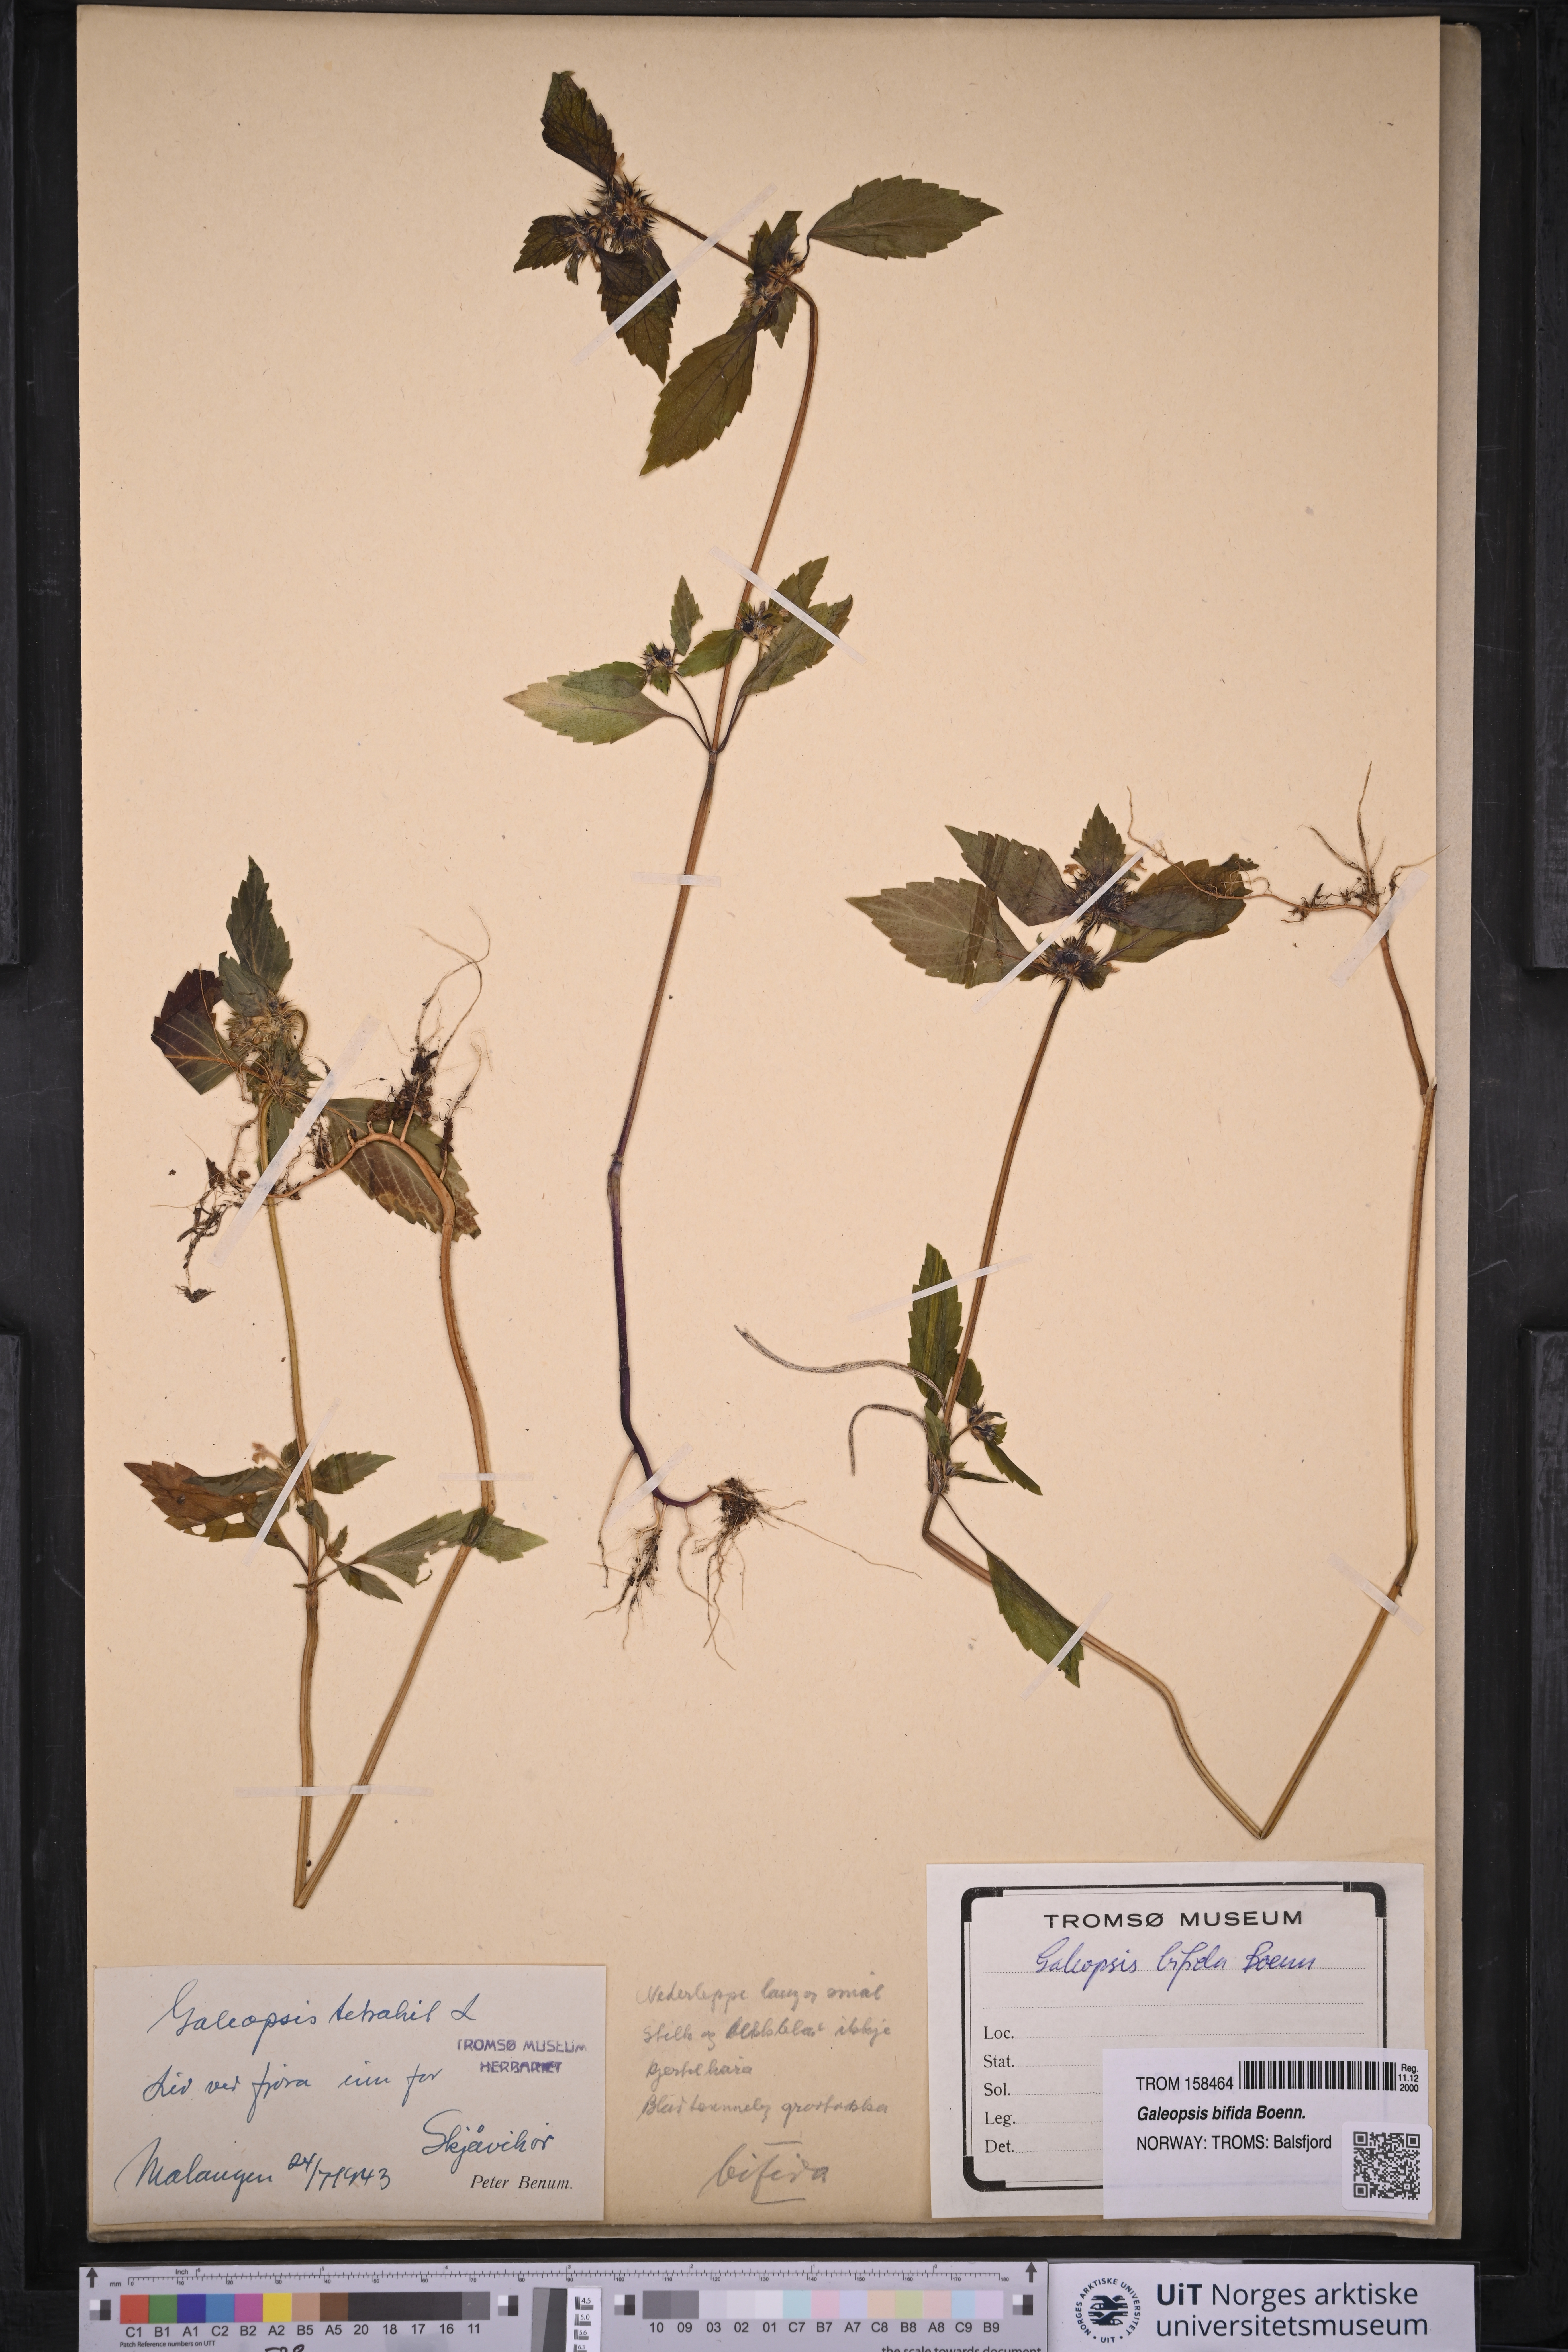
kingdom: Plantae
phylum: Tracheophyta
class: Magnoliopsida
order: Lamiales
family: Lamiaceae
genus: Galeopsis
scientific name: Galeopsis bifida
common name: Bifid hemp-nettle
